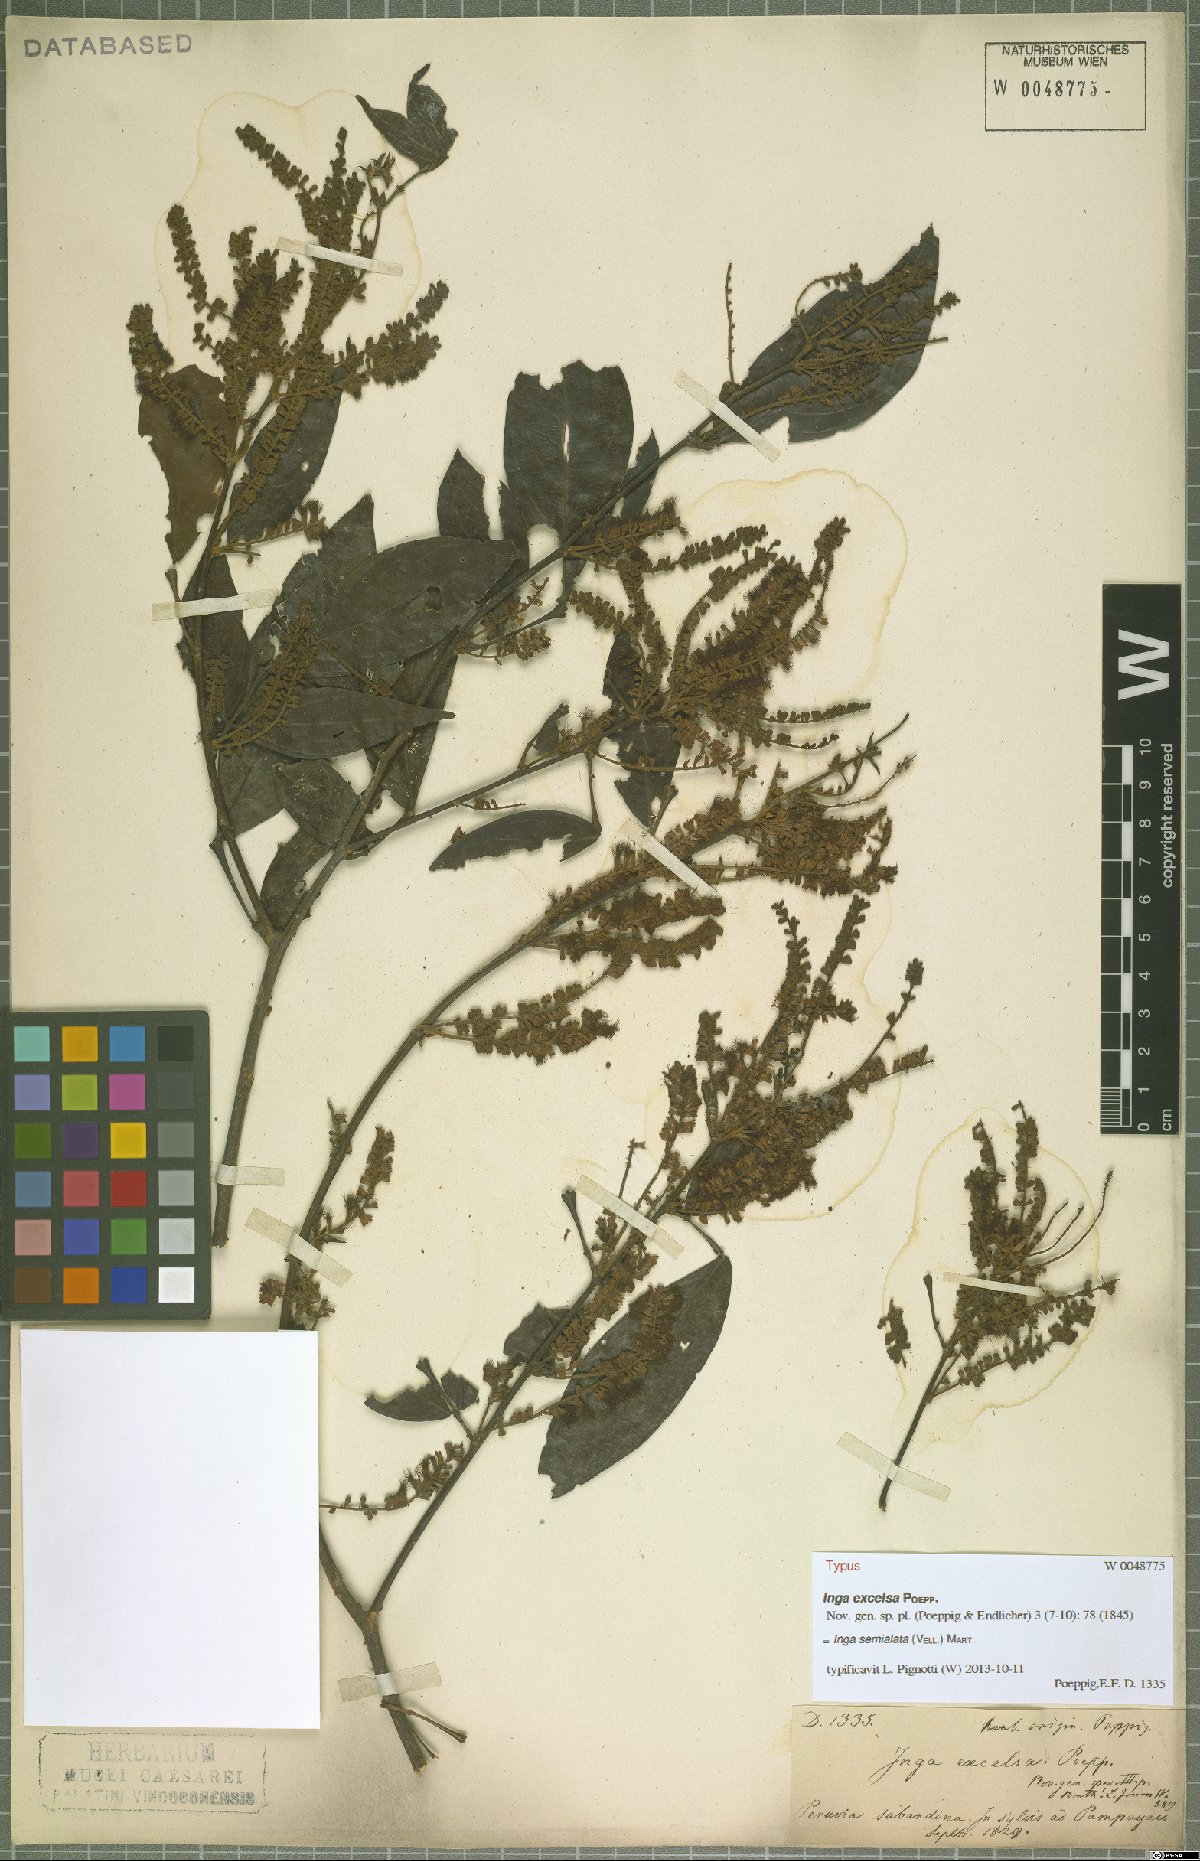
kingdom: Plantae
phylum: Tracheophyta
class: Magnoliopsida
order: Fabales
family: Fabaceae
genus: Inga
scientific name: Inga marginata
